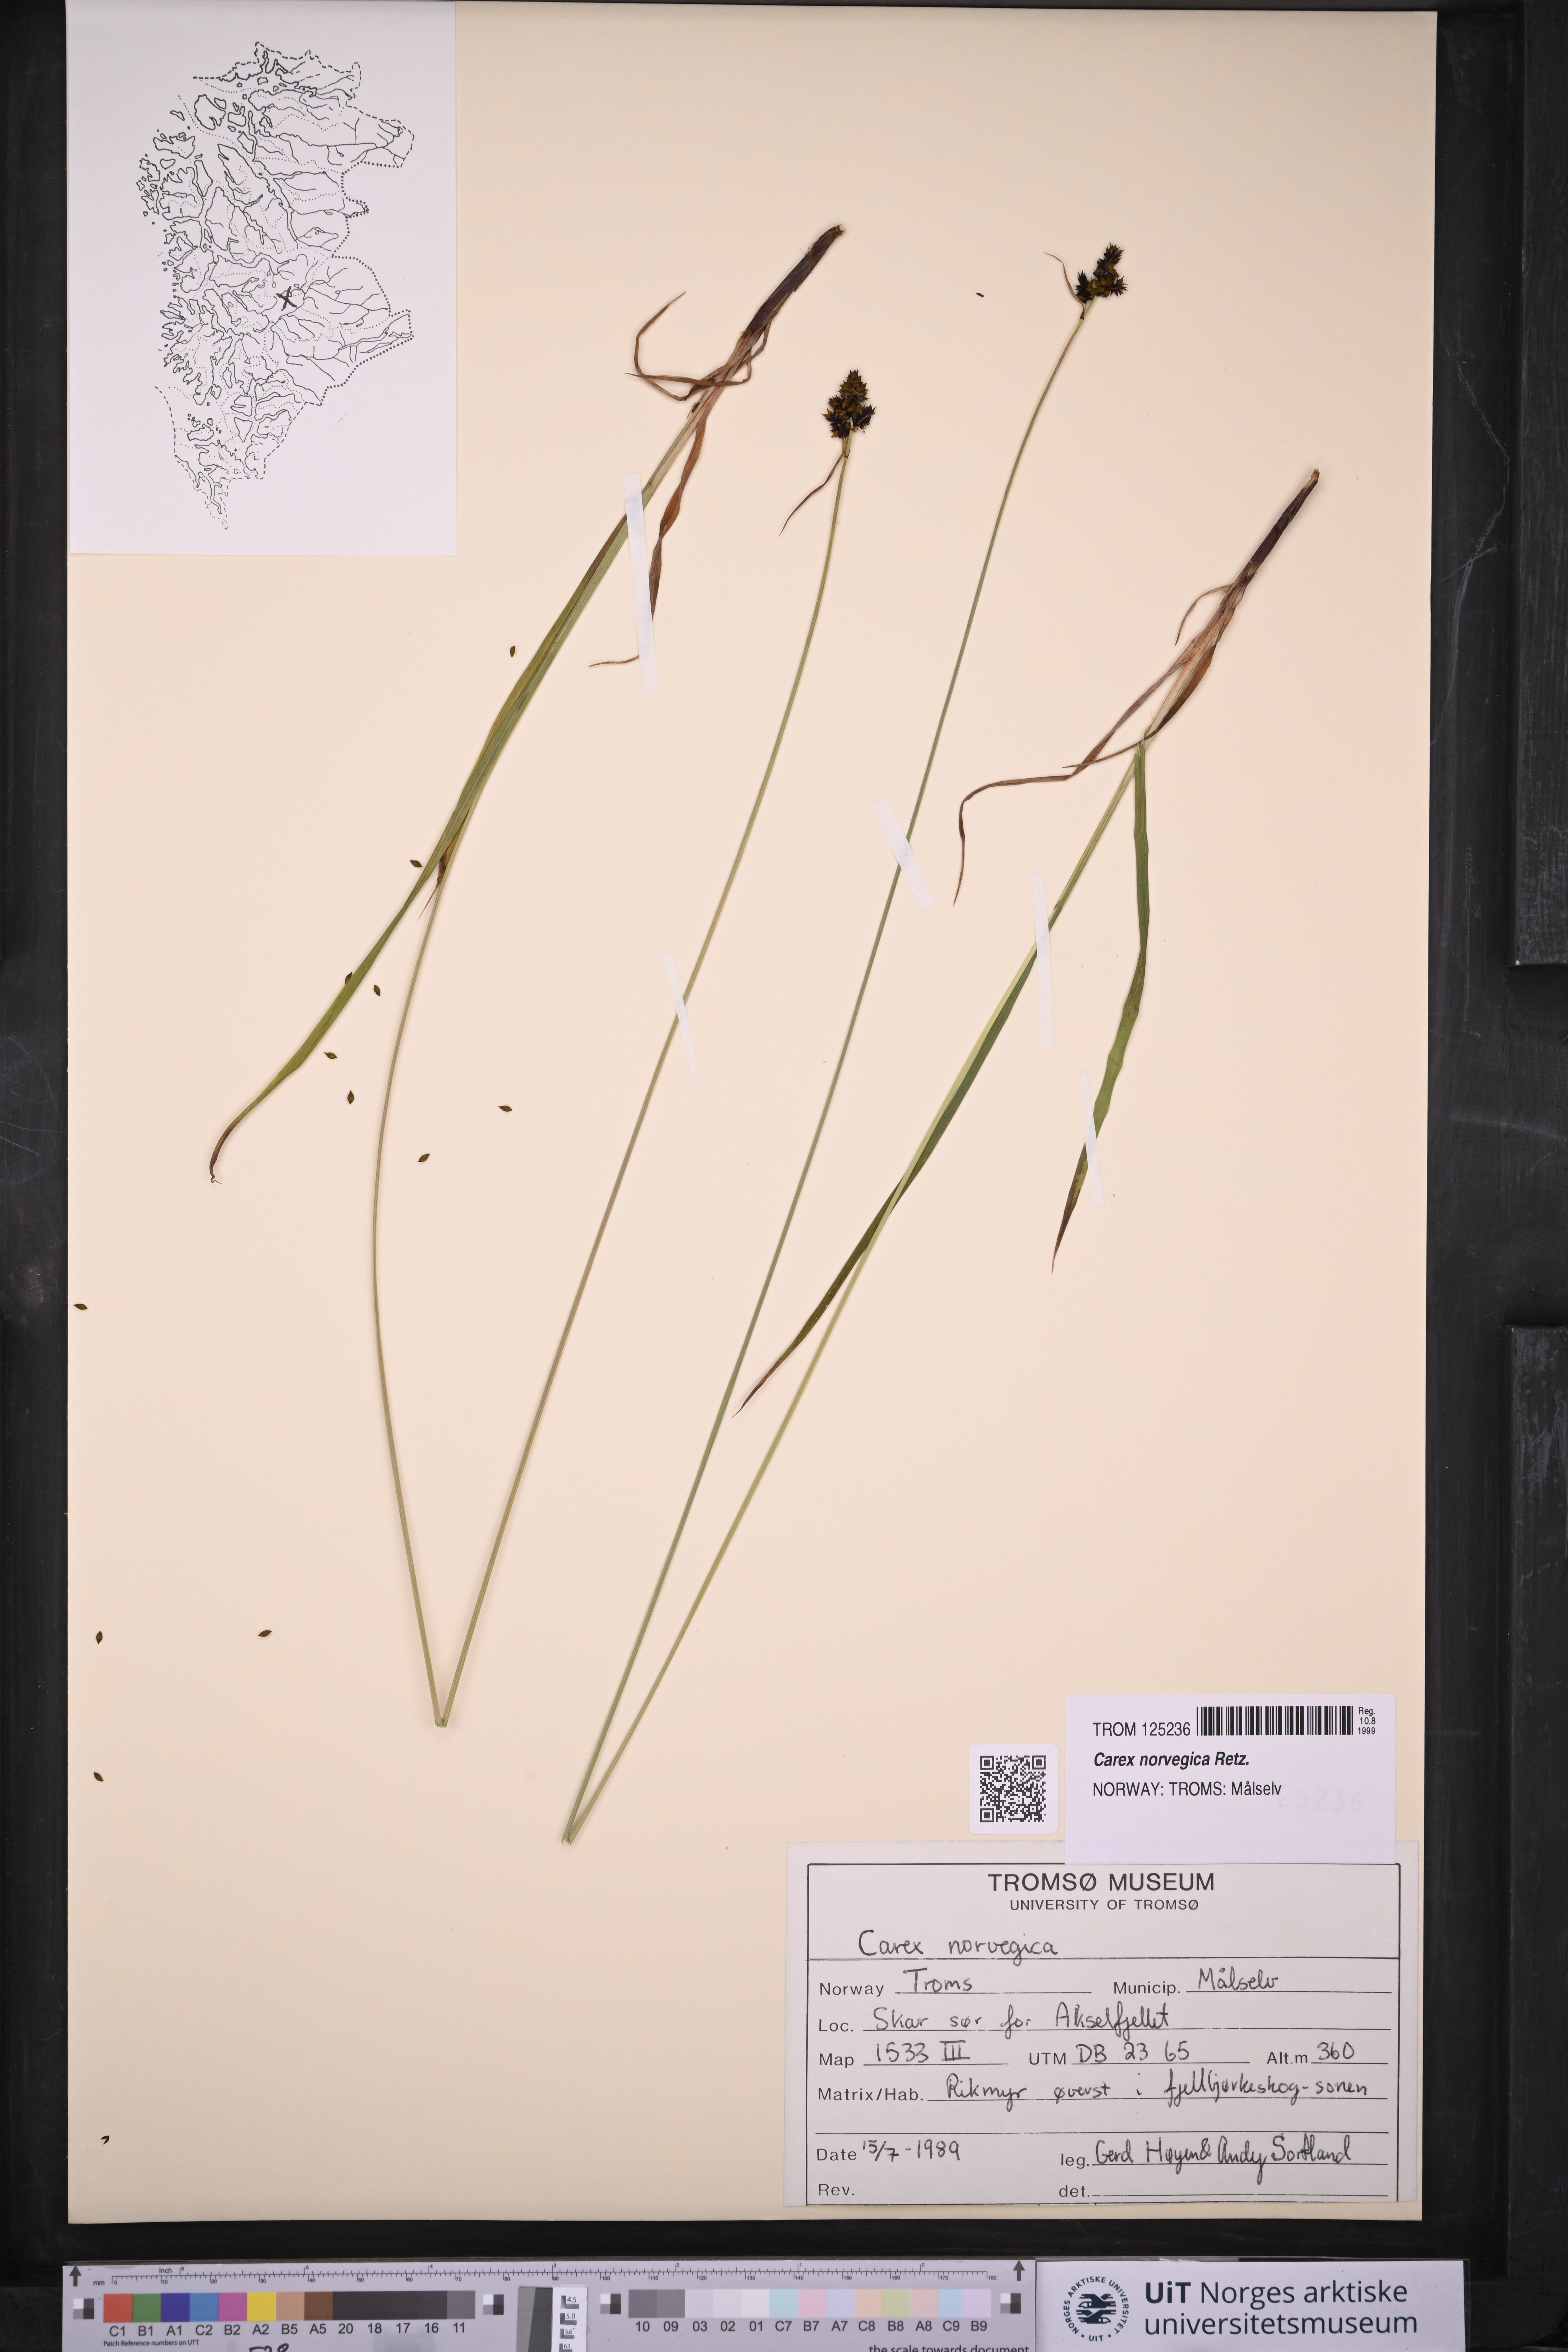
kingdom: Plantae
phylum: Tracheophyta
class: Liliopsida
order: Poales
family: Cyperaceae
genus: Carex
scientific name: Carex norvegica
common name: Close-headed alpine-sedge
